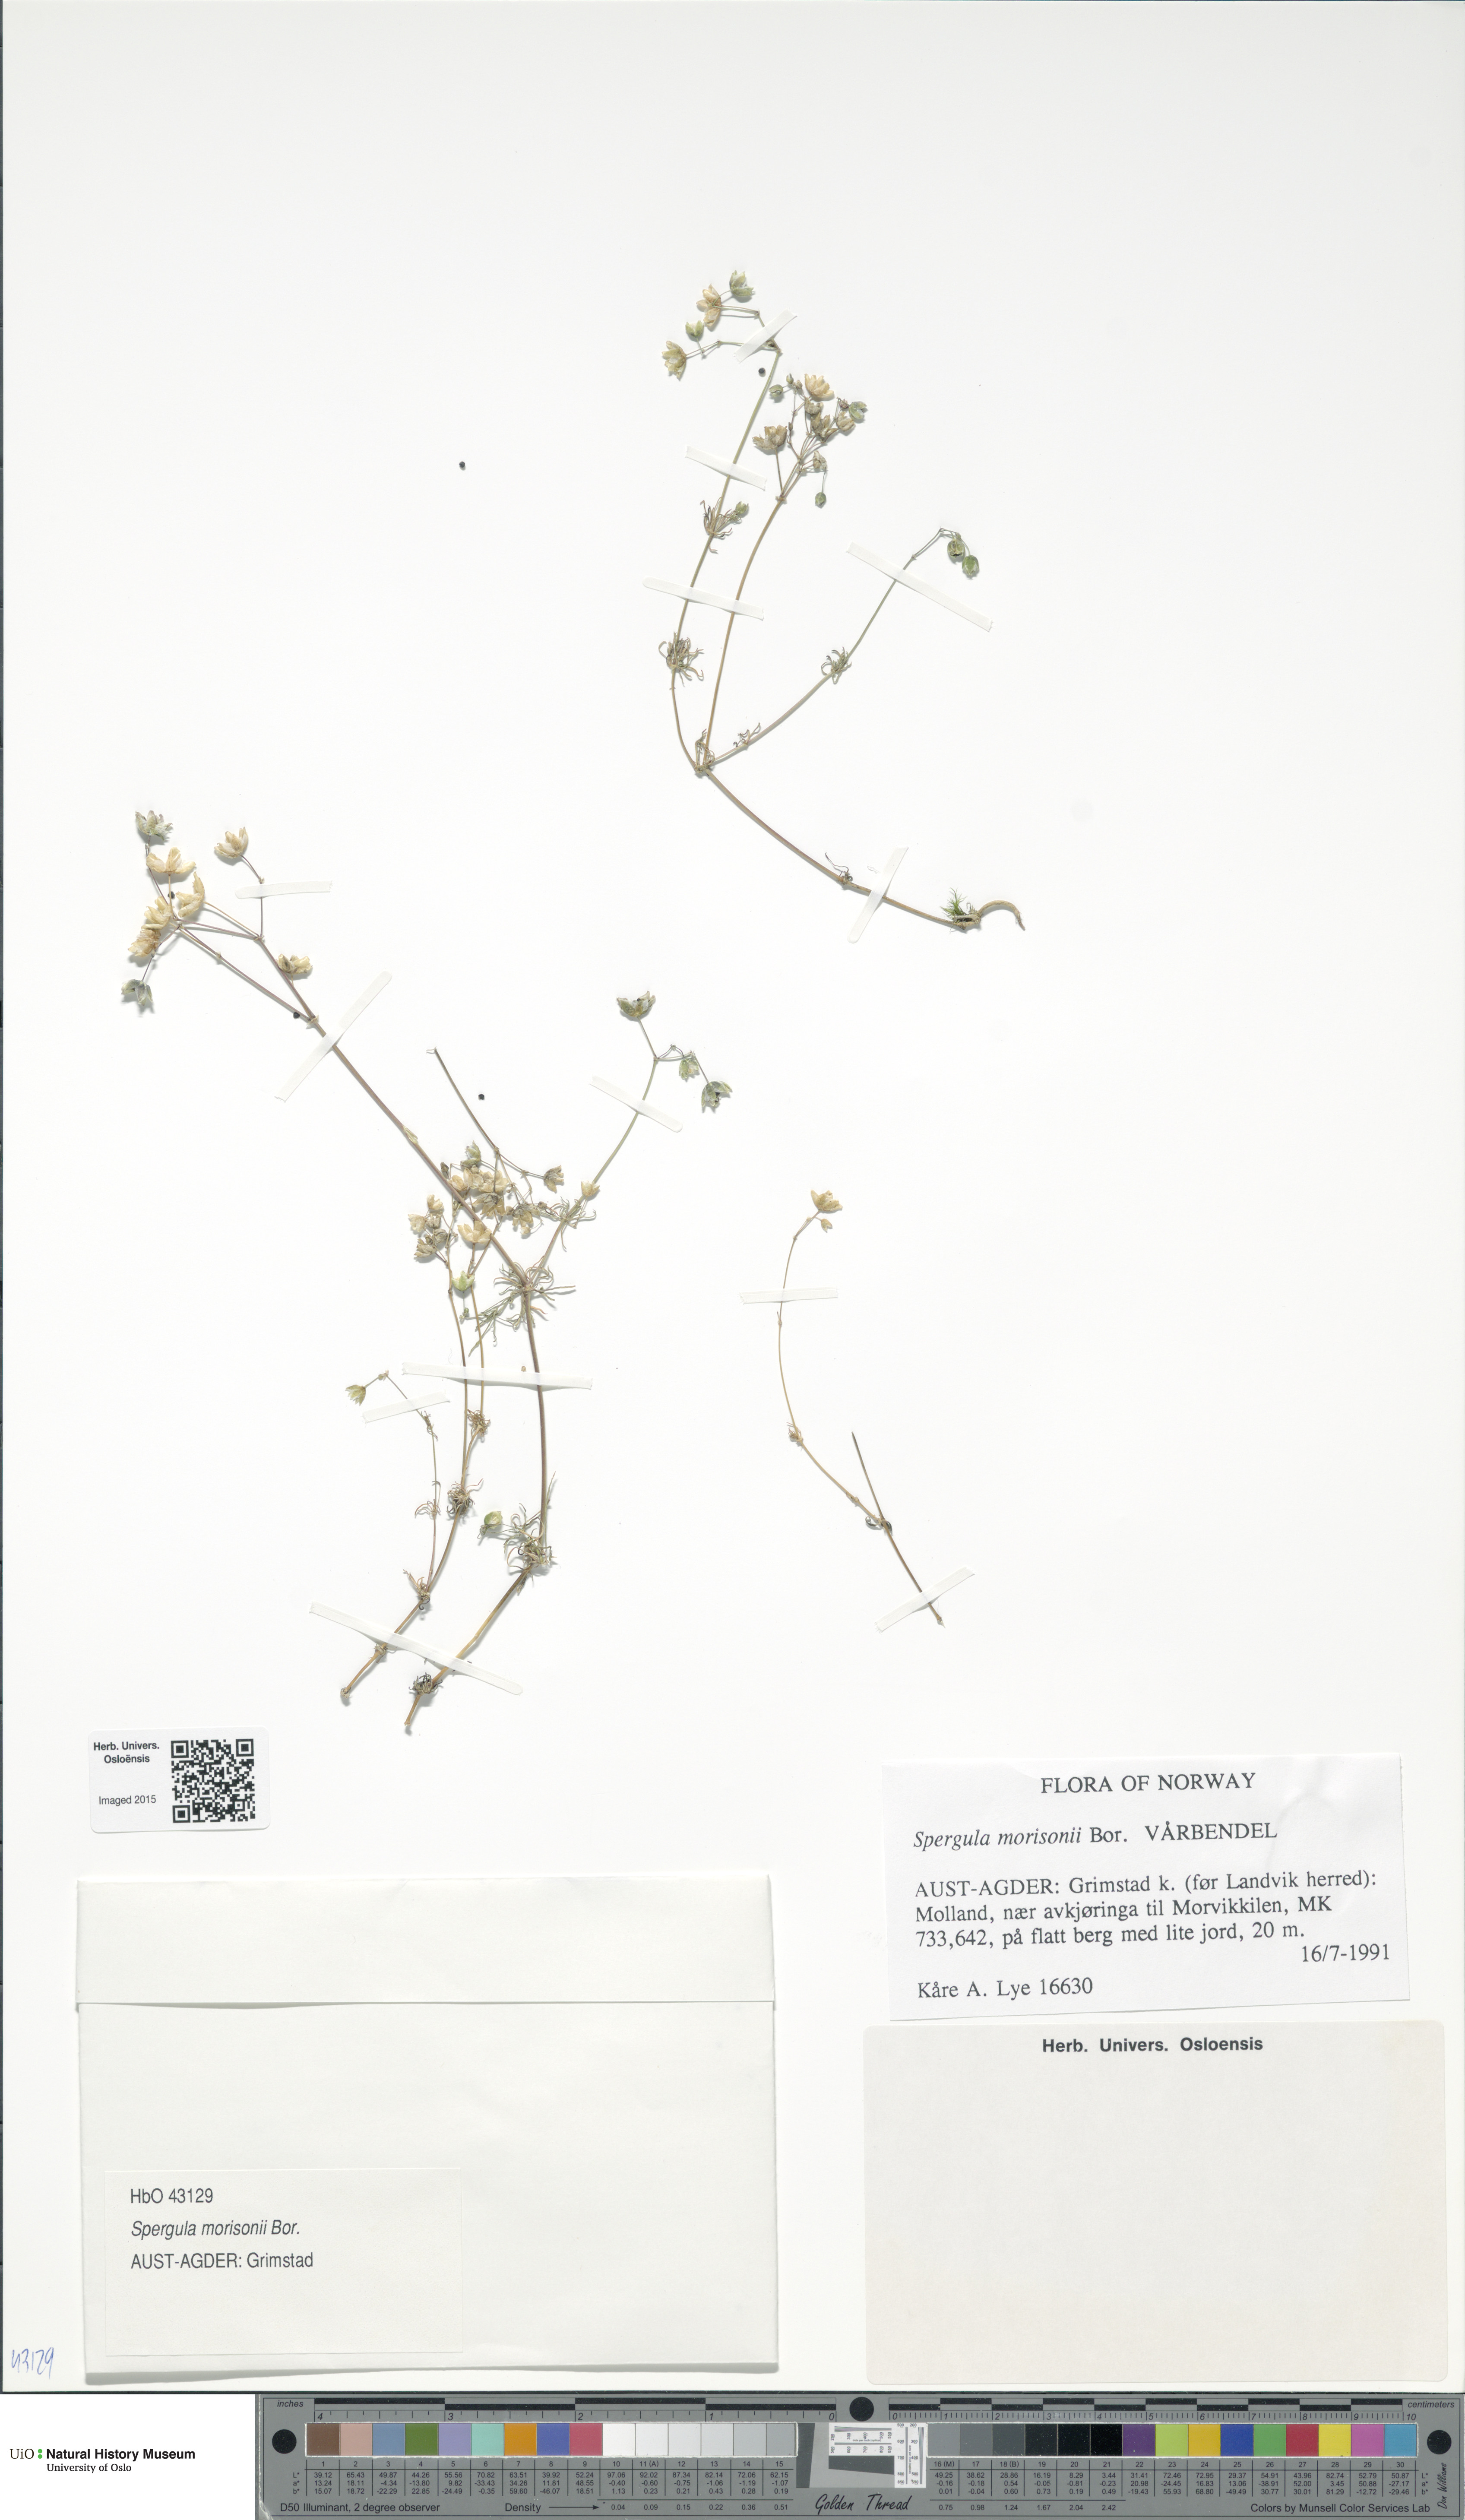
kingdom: Plantae
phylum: Tracheophyta
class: Magnoliopsida
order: Caryophyllales
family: Caryophyllaceae
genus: Spergula
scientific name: Spergula morisonii
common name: Pearlwort spurrey
